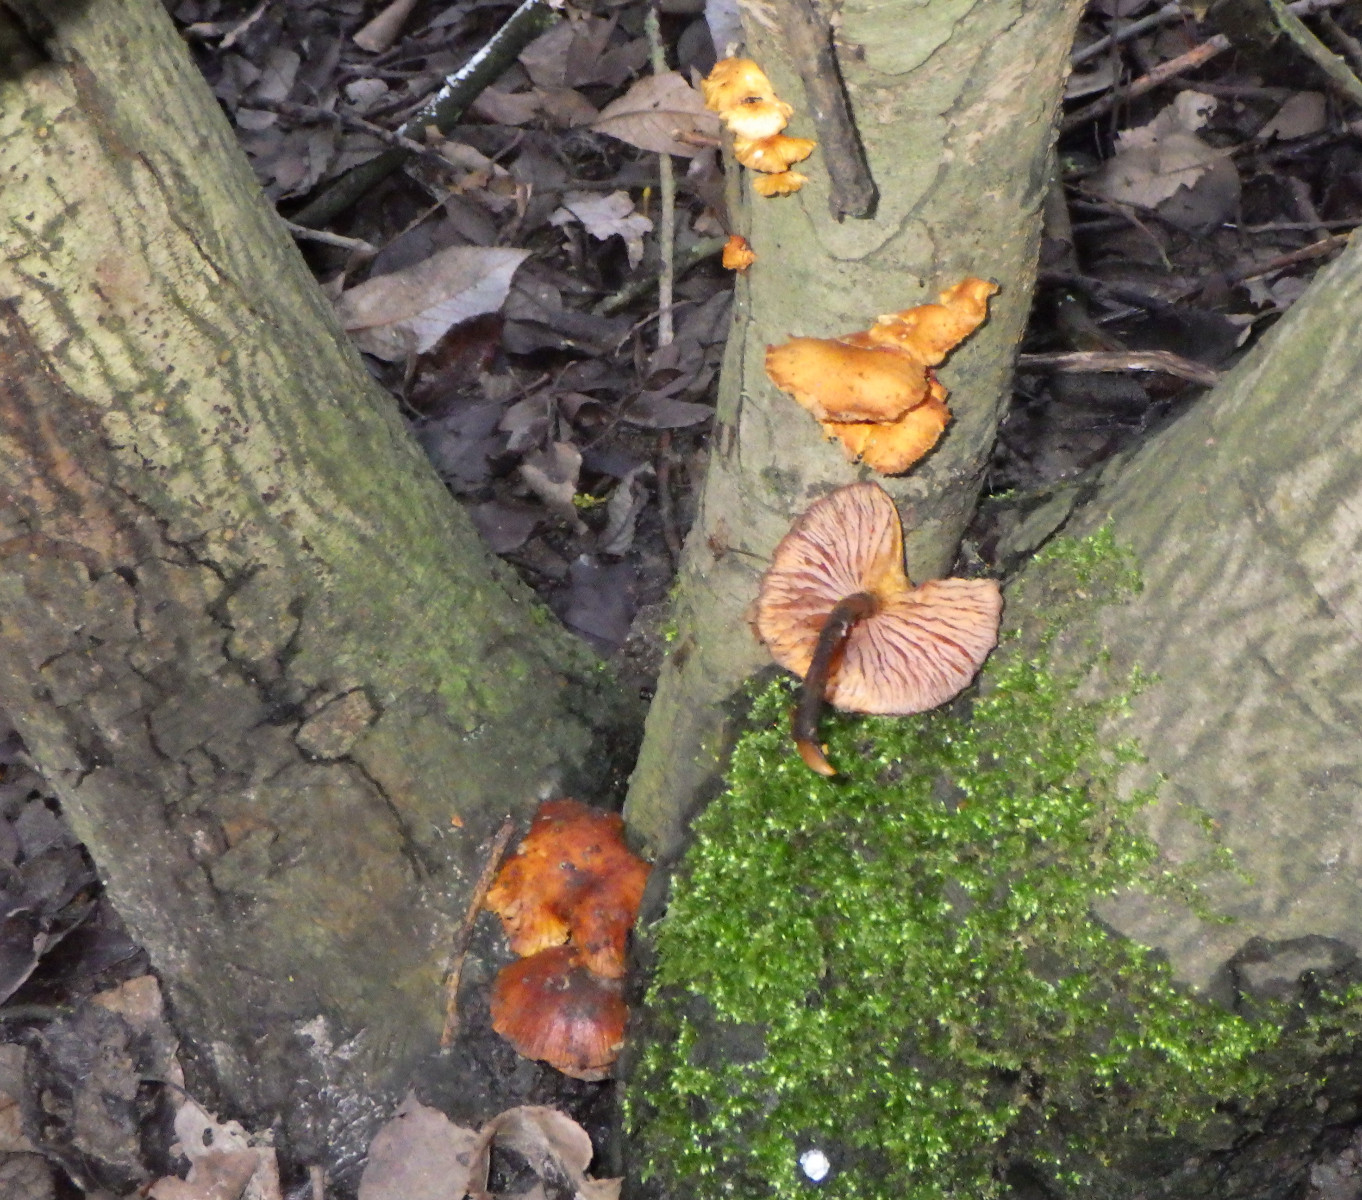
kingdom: Fungi
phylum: Basidiomycota
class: Agaricomycetes
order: Agaricales
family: Physalacriaceae
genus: Flammulina
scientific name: Flammulina
